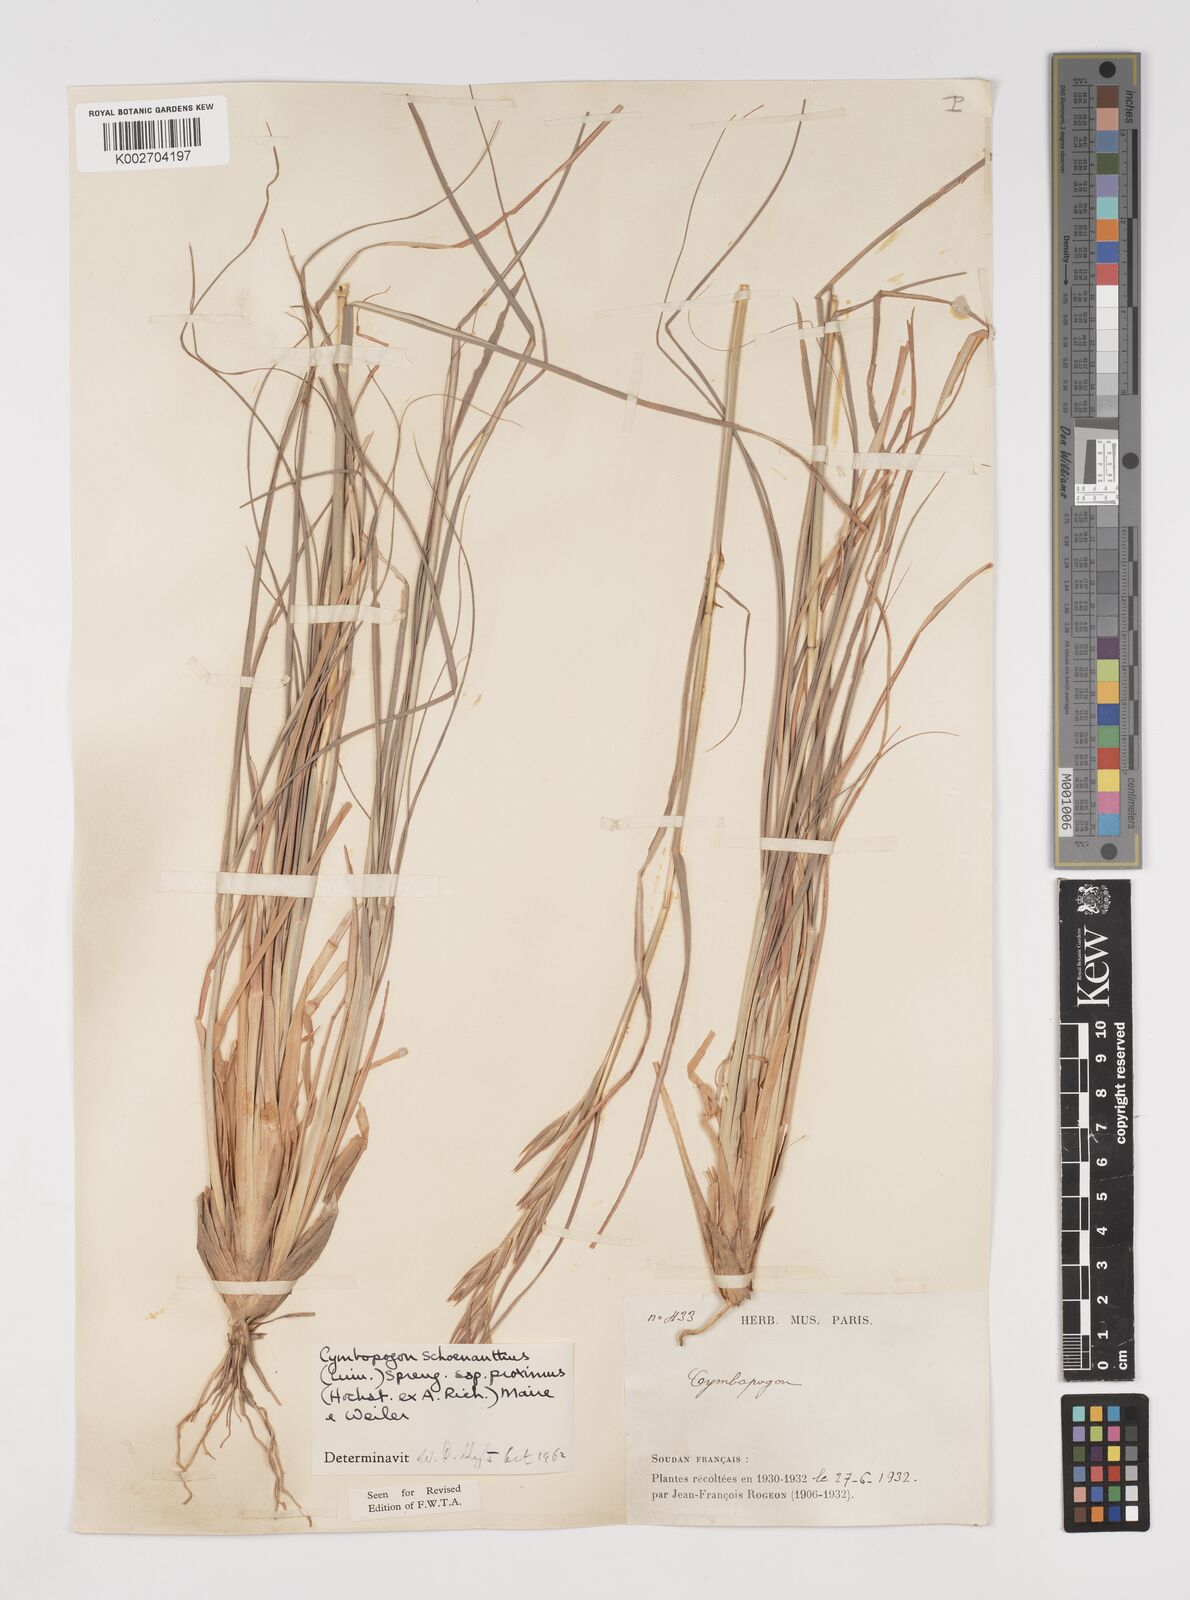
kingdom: Plantae
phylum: Tracheophyta
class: Liliopsida
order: Poales
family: Poaceae
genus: Cymbopogon
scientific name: Cymbopogon schoenanthus
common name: Geranium grass
